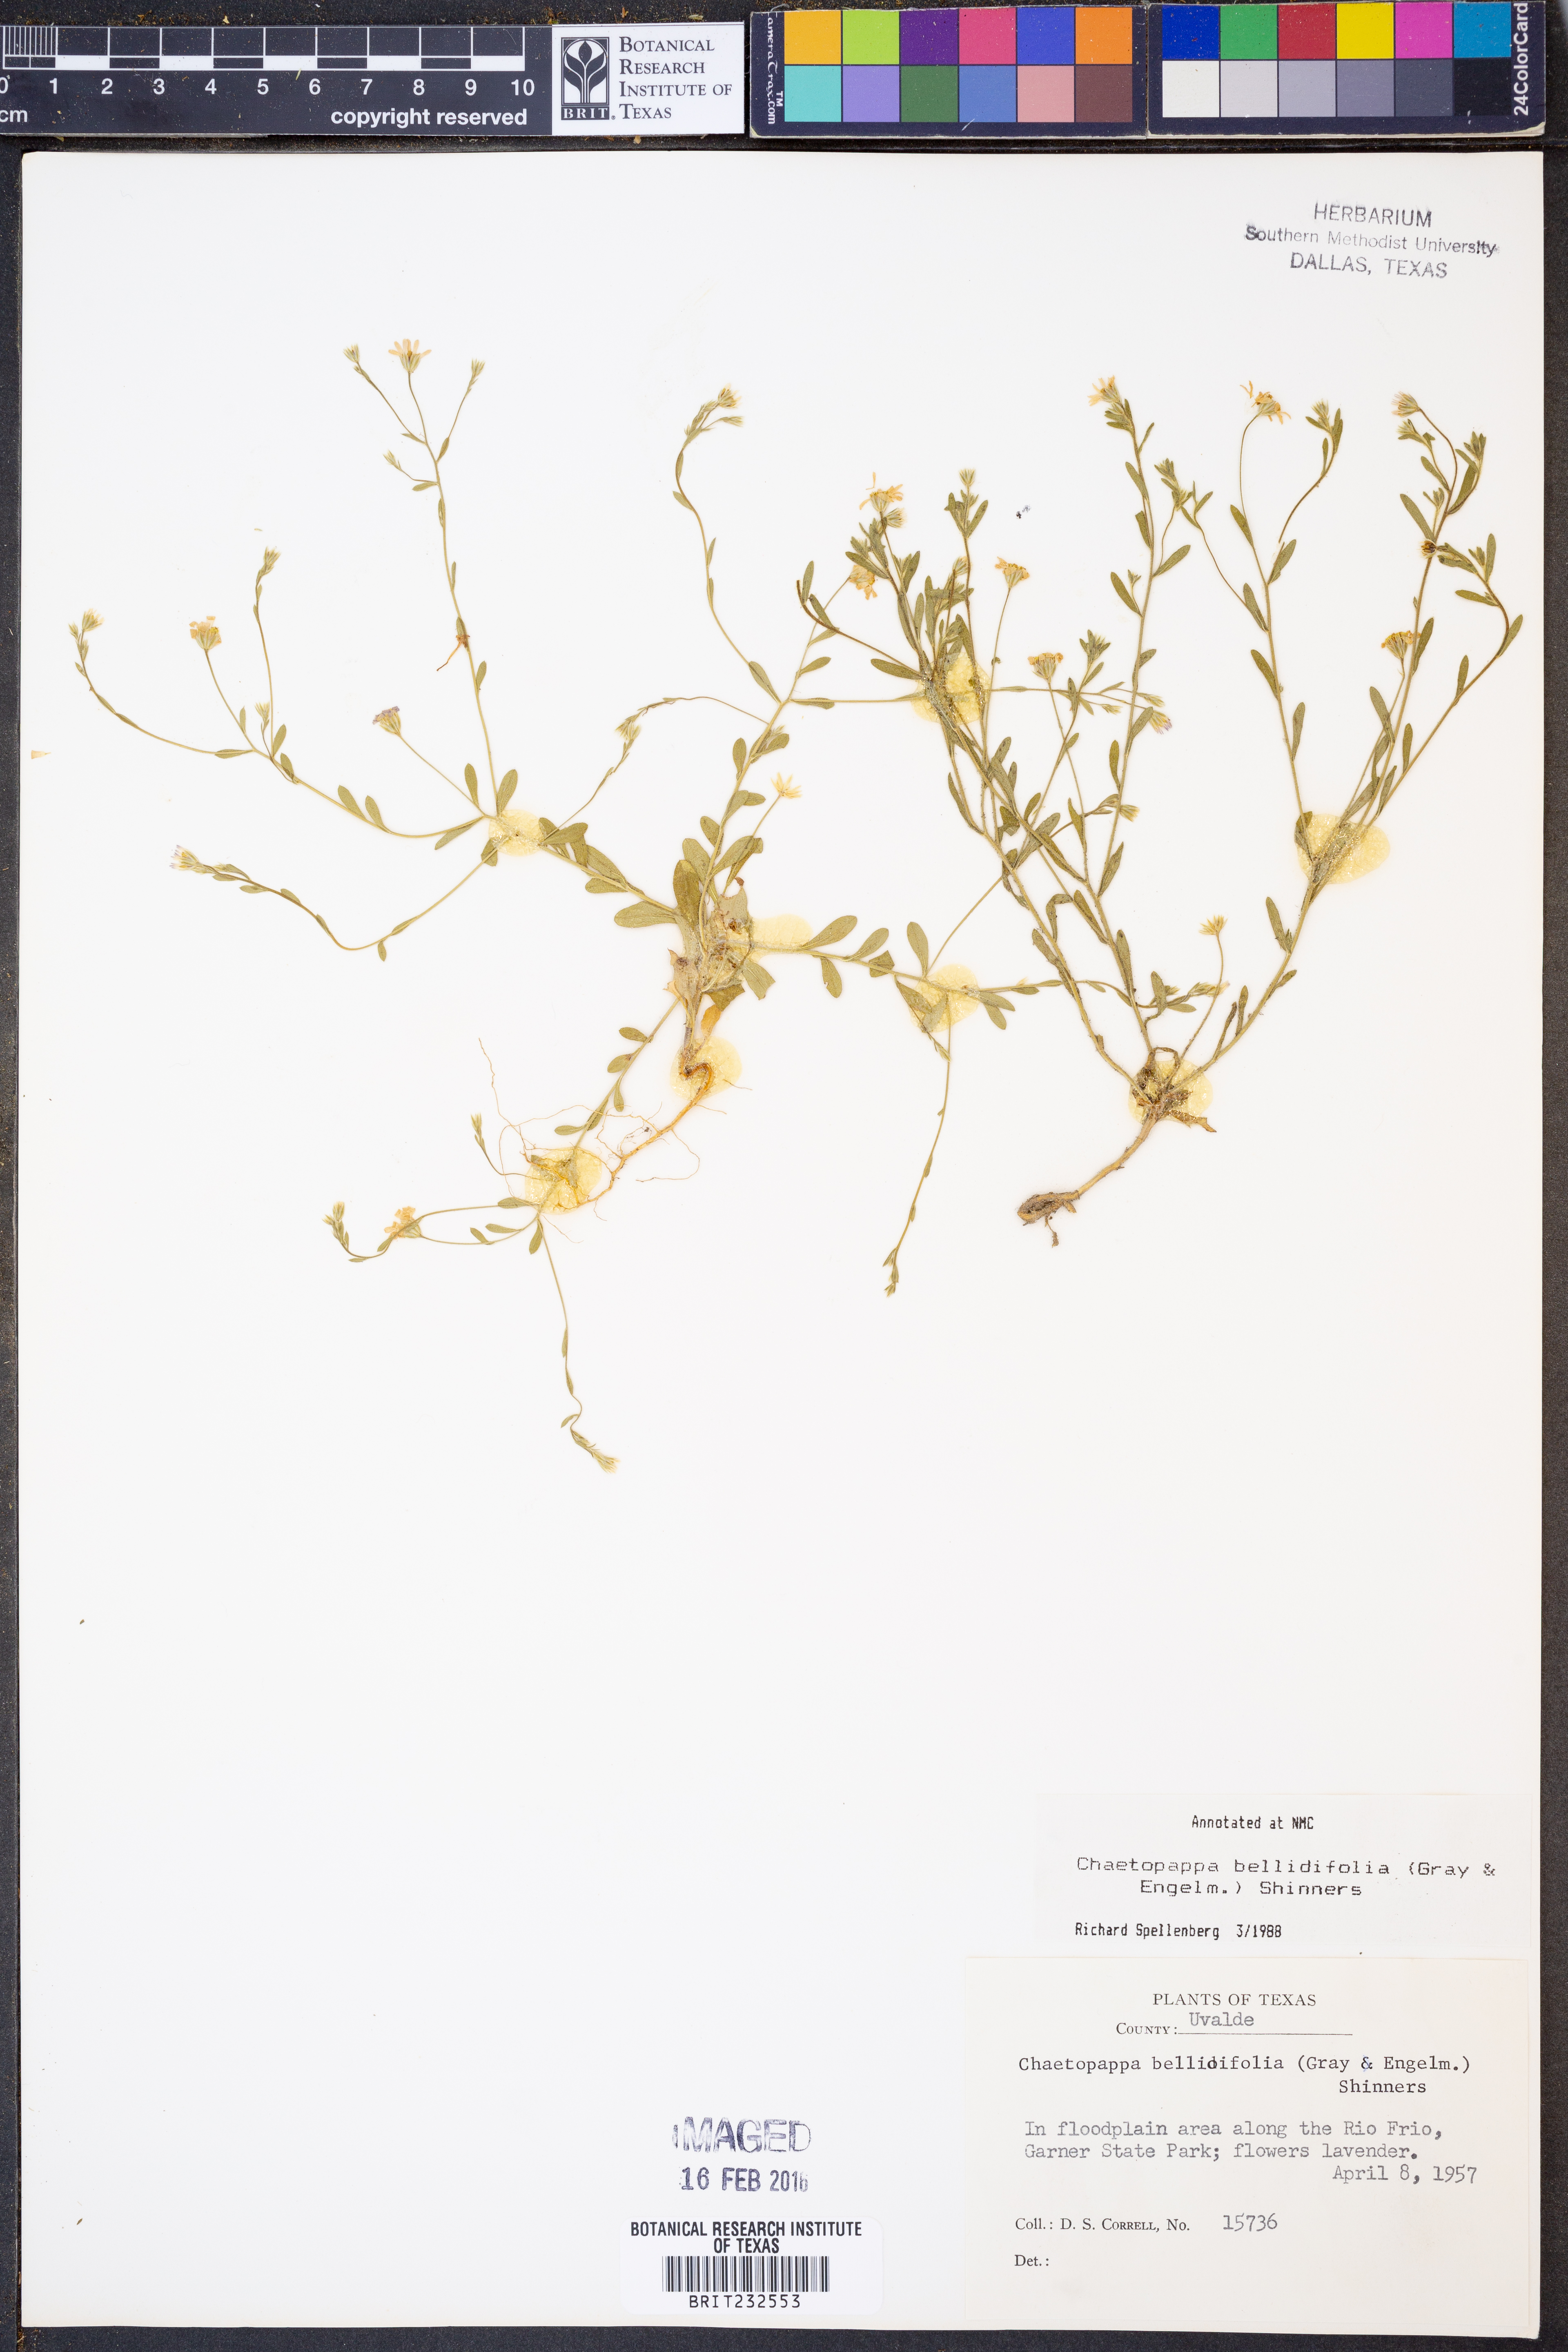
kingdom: Plantae
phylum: Tracheophyta
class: Magnoliopsida
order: Asterales
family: Asteraceae
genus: Chaetopappa
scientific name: Chaetopappa bellidifolia
